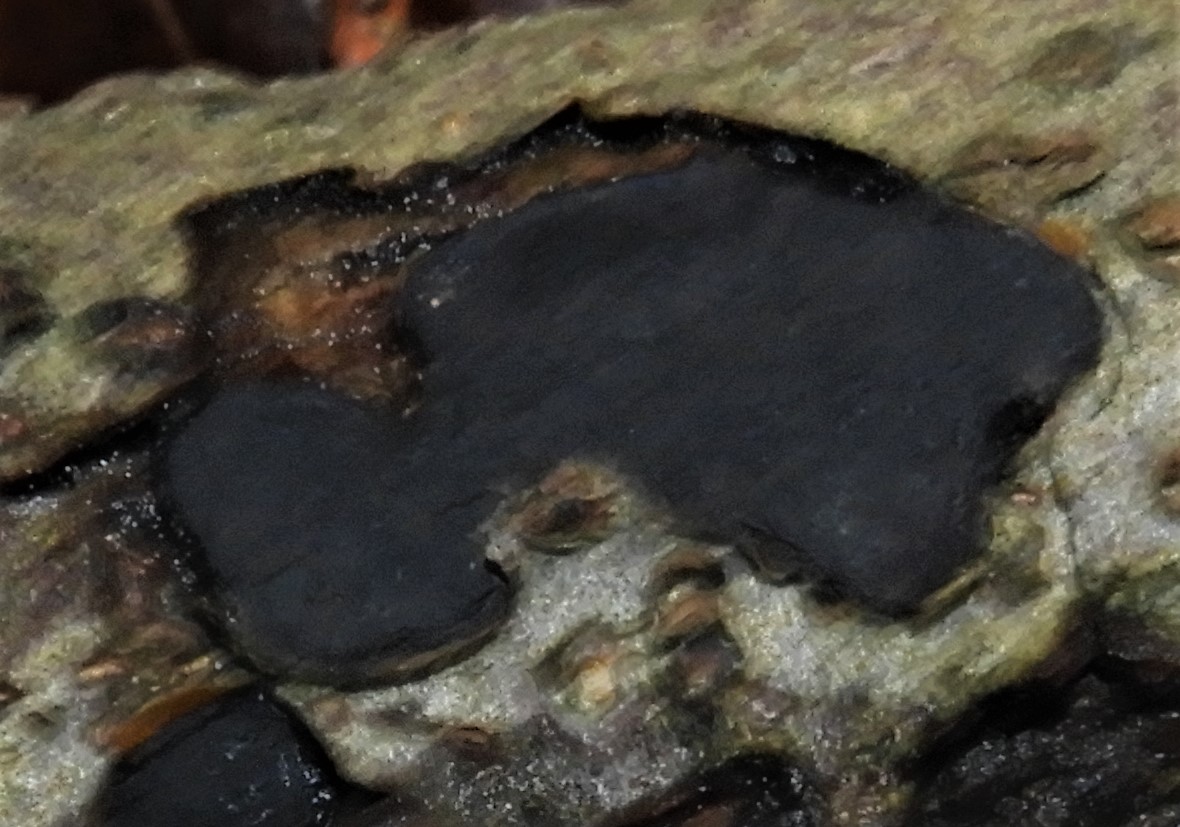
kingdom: Fungi
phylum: Ascomycota
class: Sordariomycetes
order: Xylariales
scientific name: Xylariales
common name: stødsvampordenen
